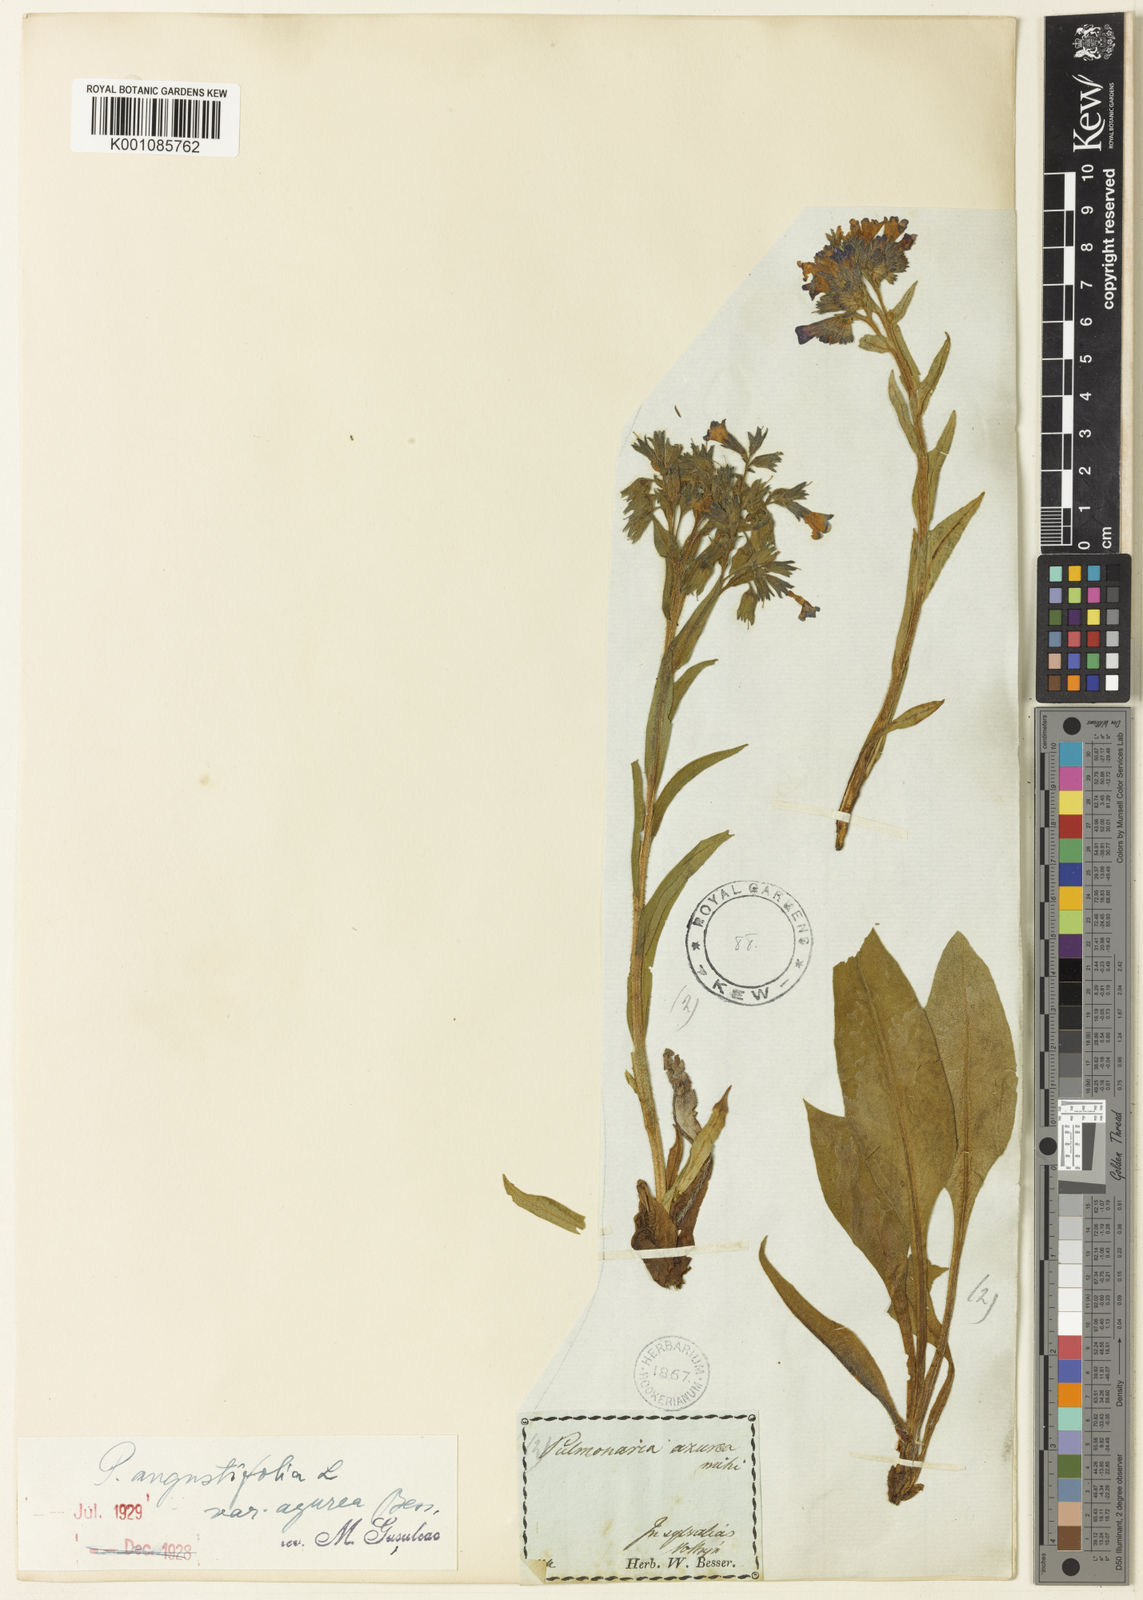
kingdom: Plantae
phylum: Tracheophyta
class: Magnoliopsida
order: Boraginales
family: Boraginaceae
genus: Pulmonaria
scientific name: Pulmonaria angustifolia
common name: Blue cowslip
